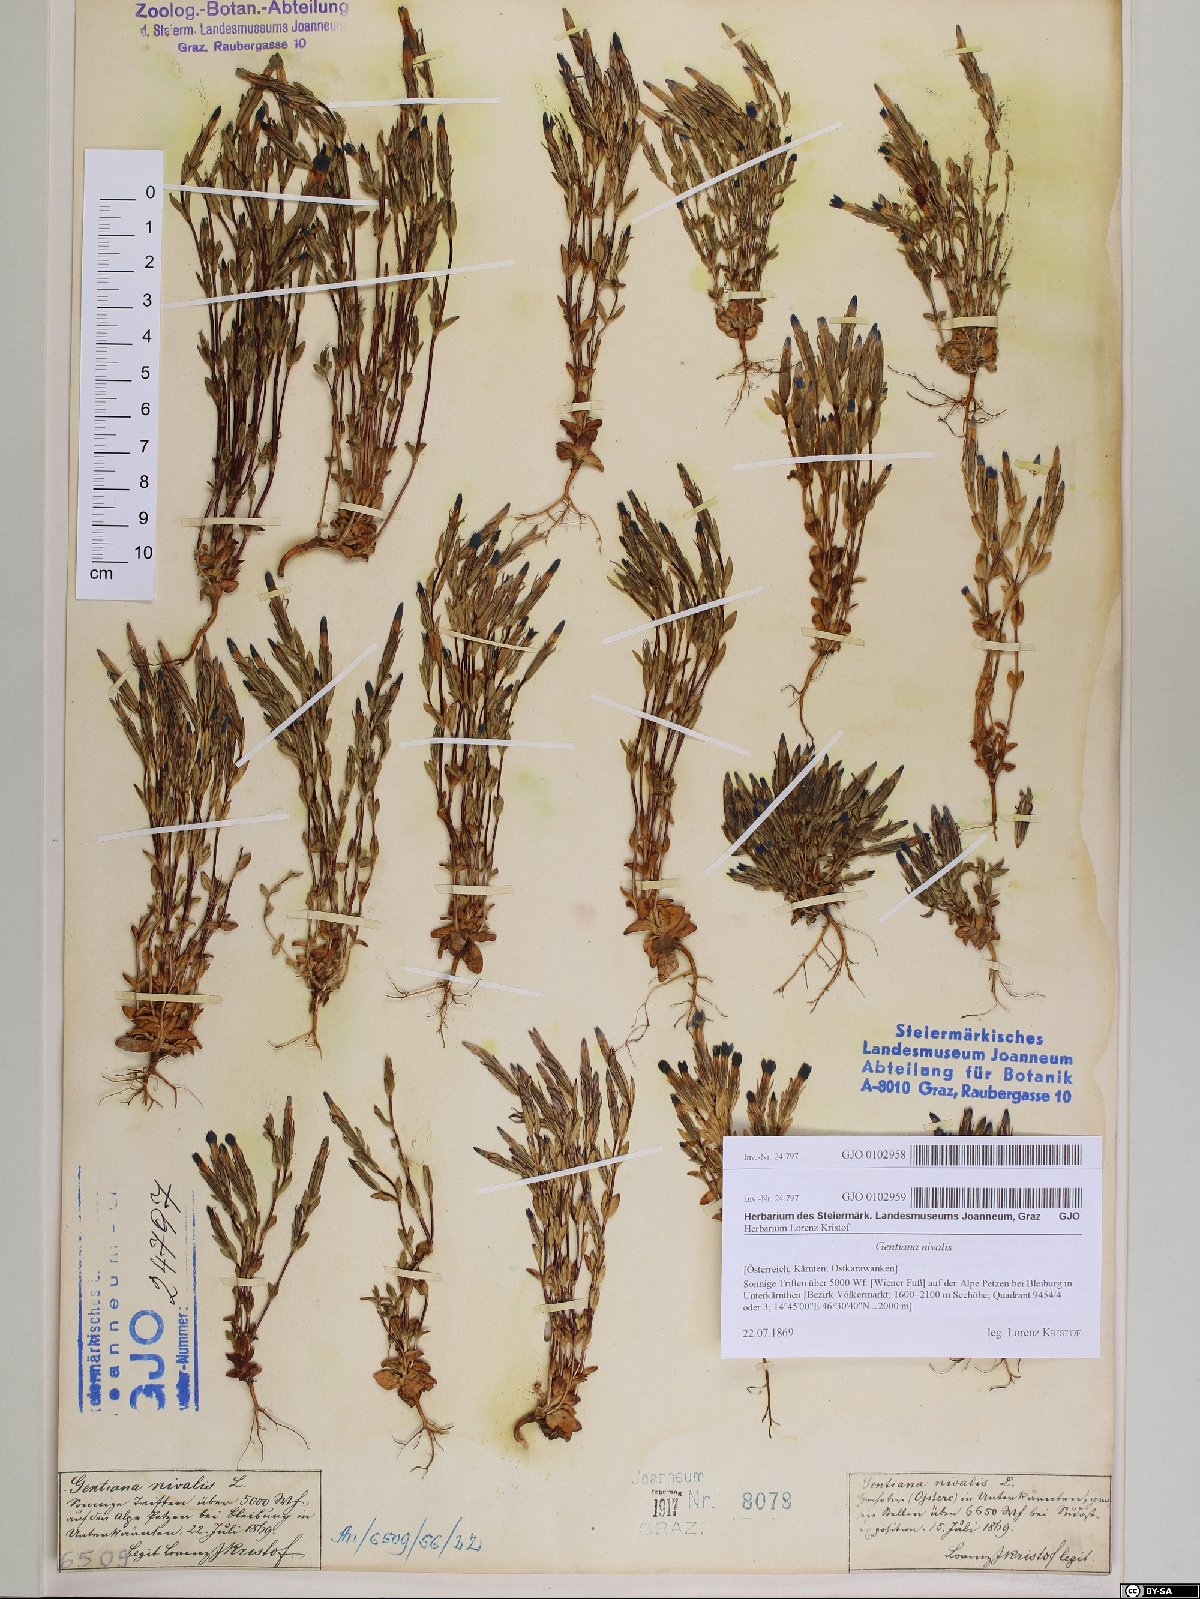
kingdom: Plantae
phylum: Tracheophyta
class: Magnoliopsida
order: Gentianales
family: Gentianaceae
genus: Gentiana
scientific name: Gentiana nivalis
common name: Alpine gentian
